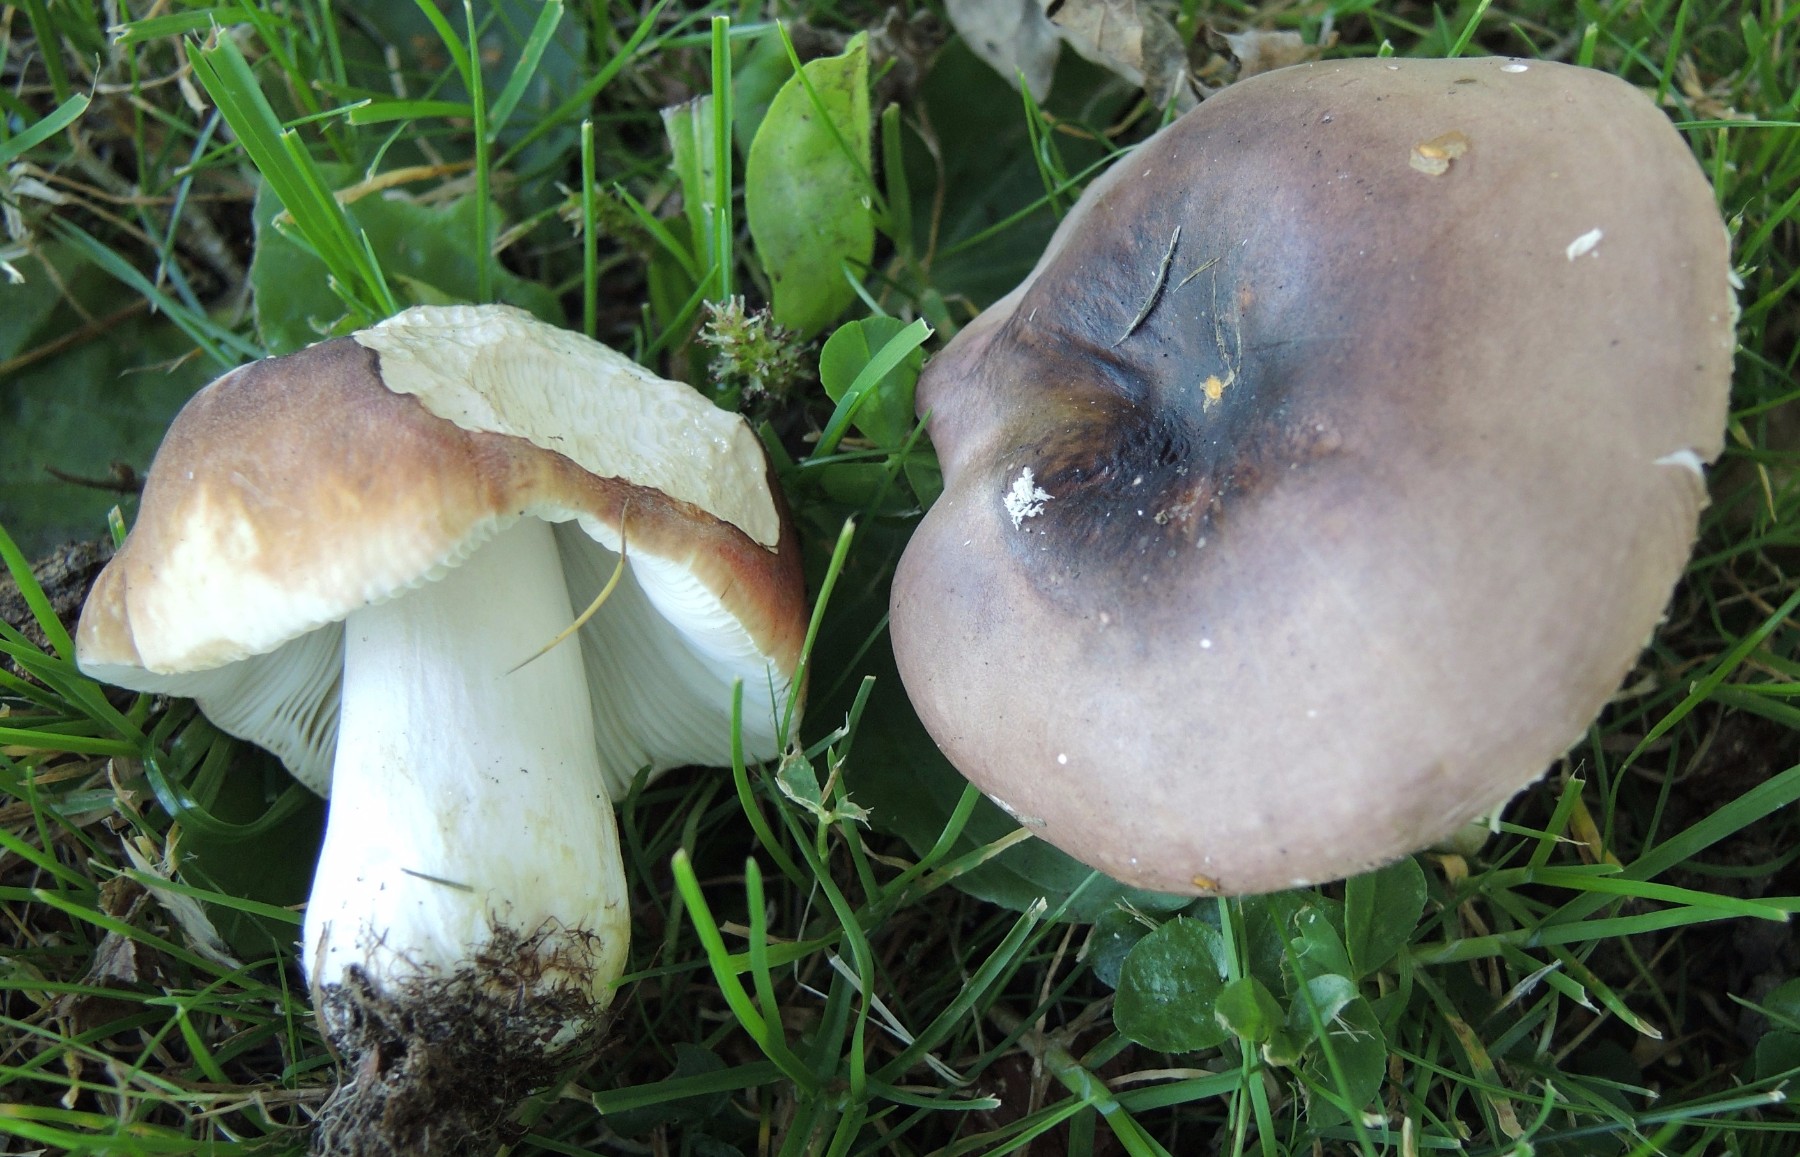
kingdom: Fungi
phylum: Basidiomycota
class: Agaricomycetes
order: Russulales
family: Russulaceae
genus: Russula
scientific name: Russula graveolens
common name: bugtet skørhat
